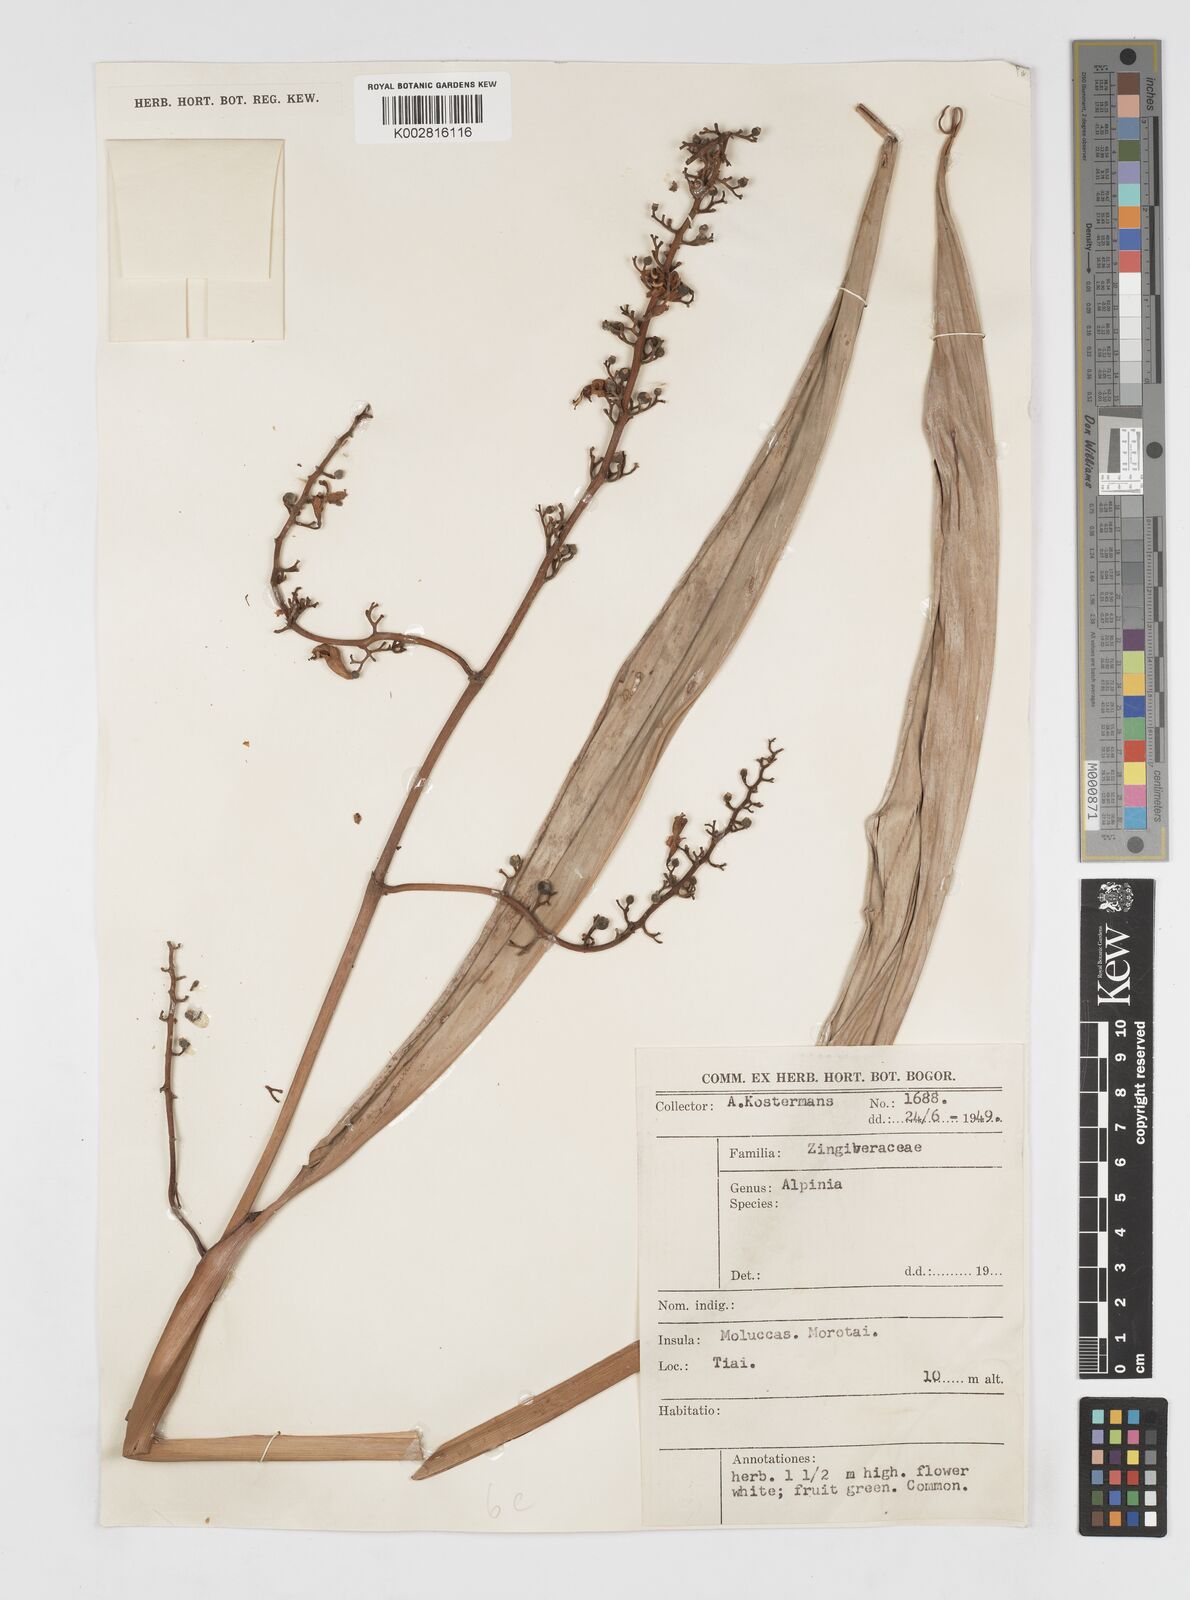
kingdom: Plantae
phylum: Tracheophyta
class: Liliopsida
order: Zingiberales
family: Zingiberaceae
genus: Alpinia
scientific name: Alpinia
